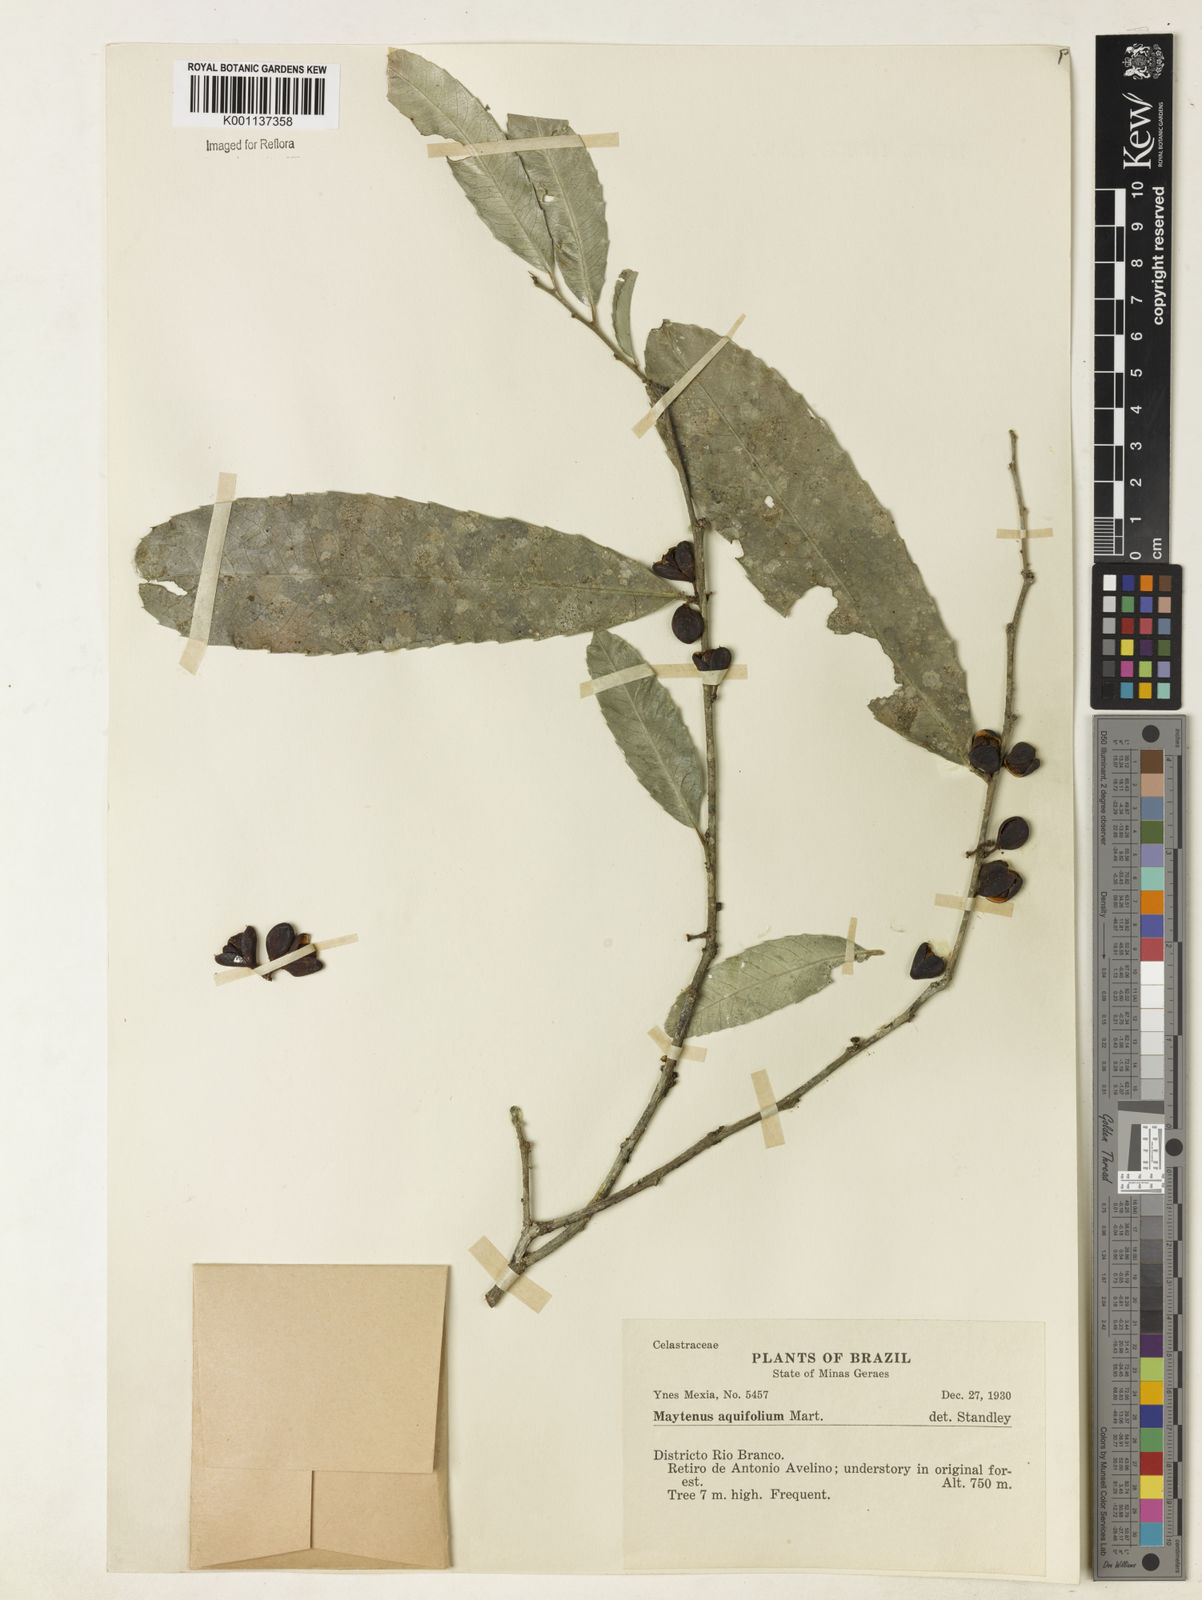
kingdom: Plantae
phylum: Tracheophyta
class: Magnoliopsida
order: Celastrales
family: Celastraceae
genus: Monteverdia
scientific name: Monteverdia aquifolium
